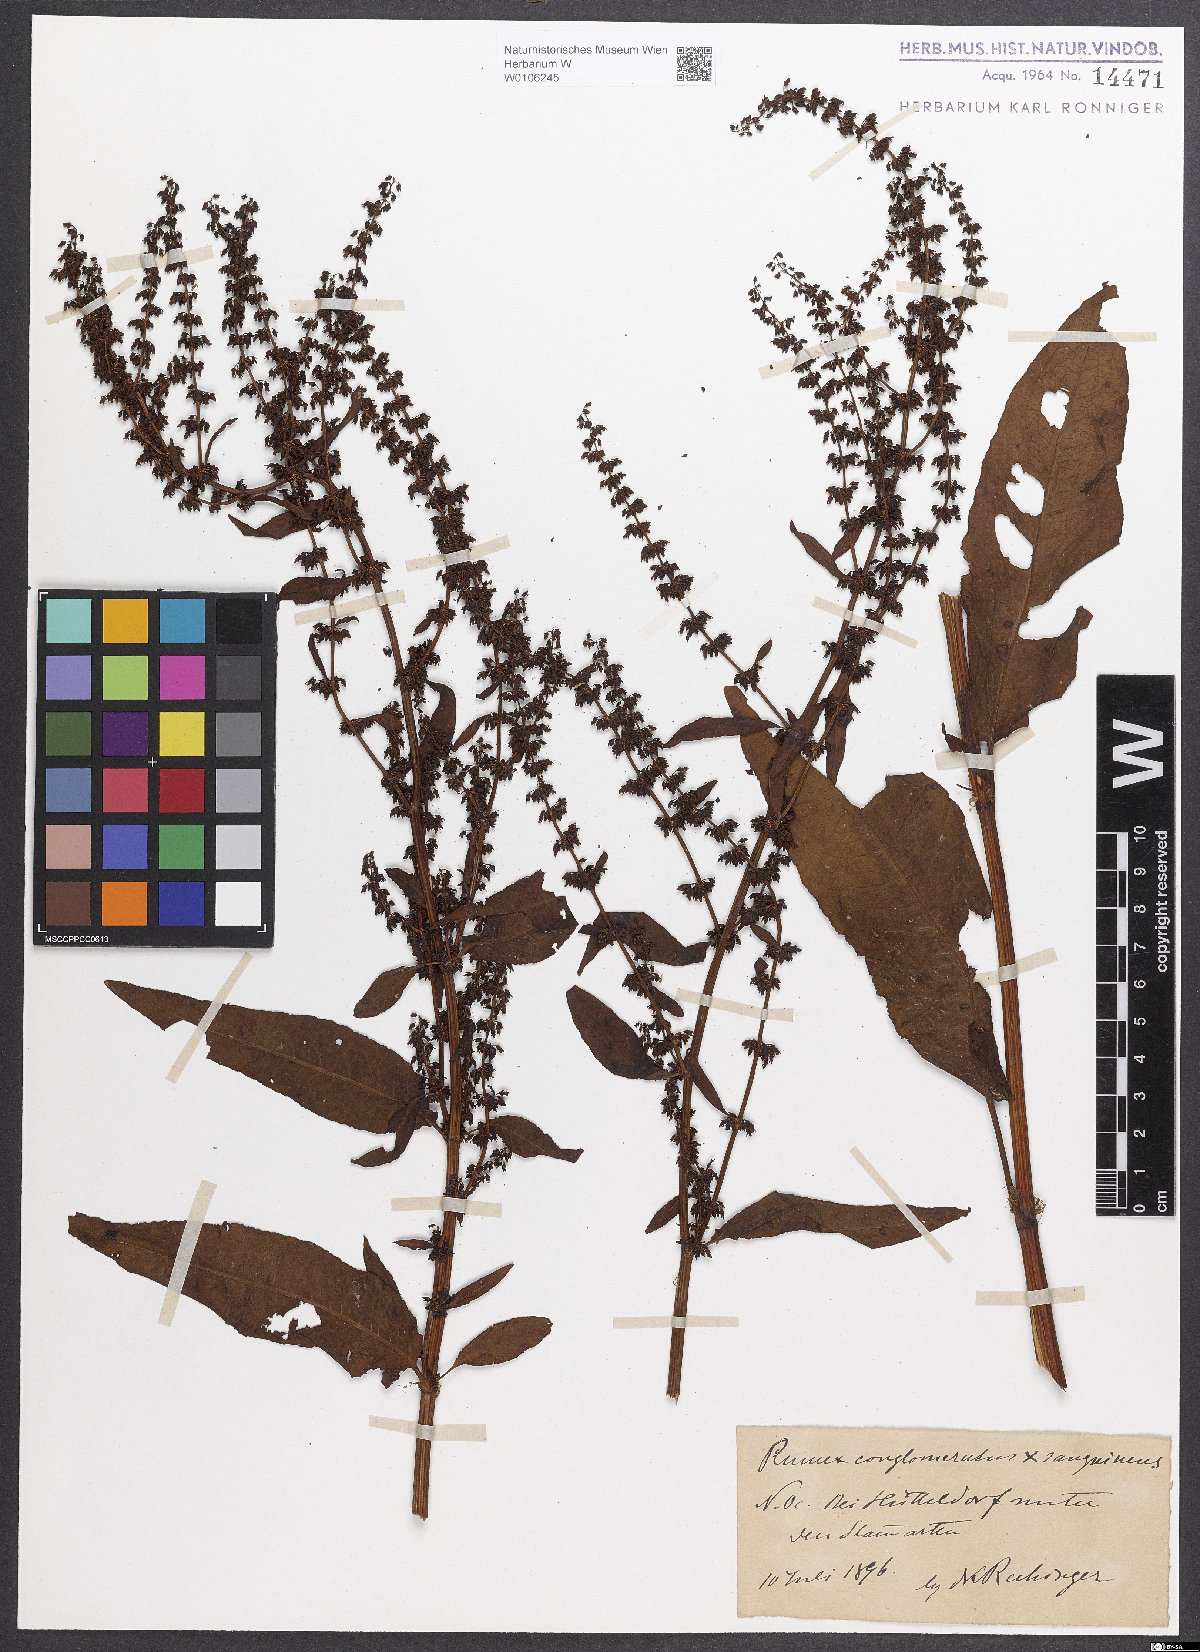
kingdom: Plantae
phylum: Tracheophyta
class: Magnoliopsida
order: Caryophyllales
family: Polygonaceae
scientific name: Polygonaceae
